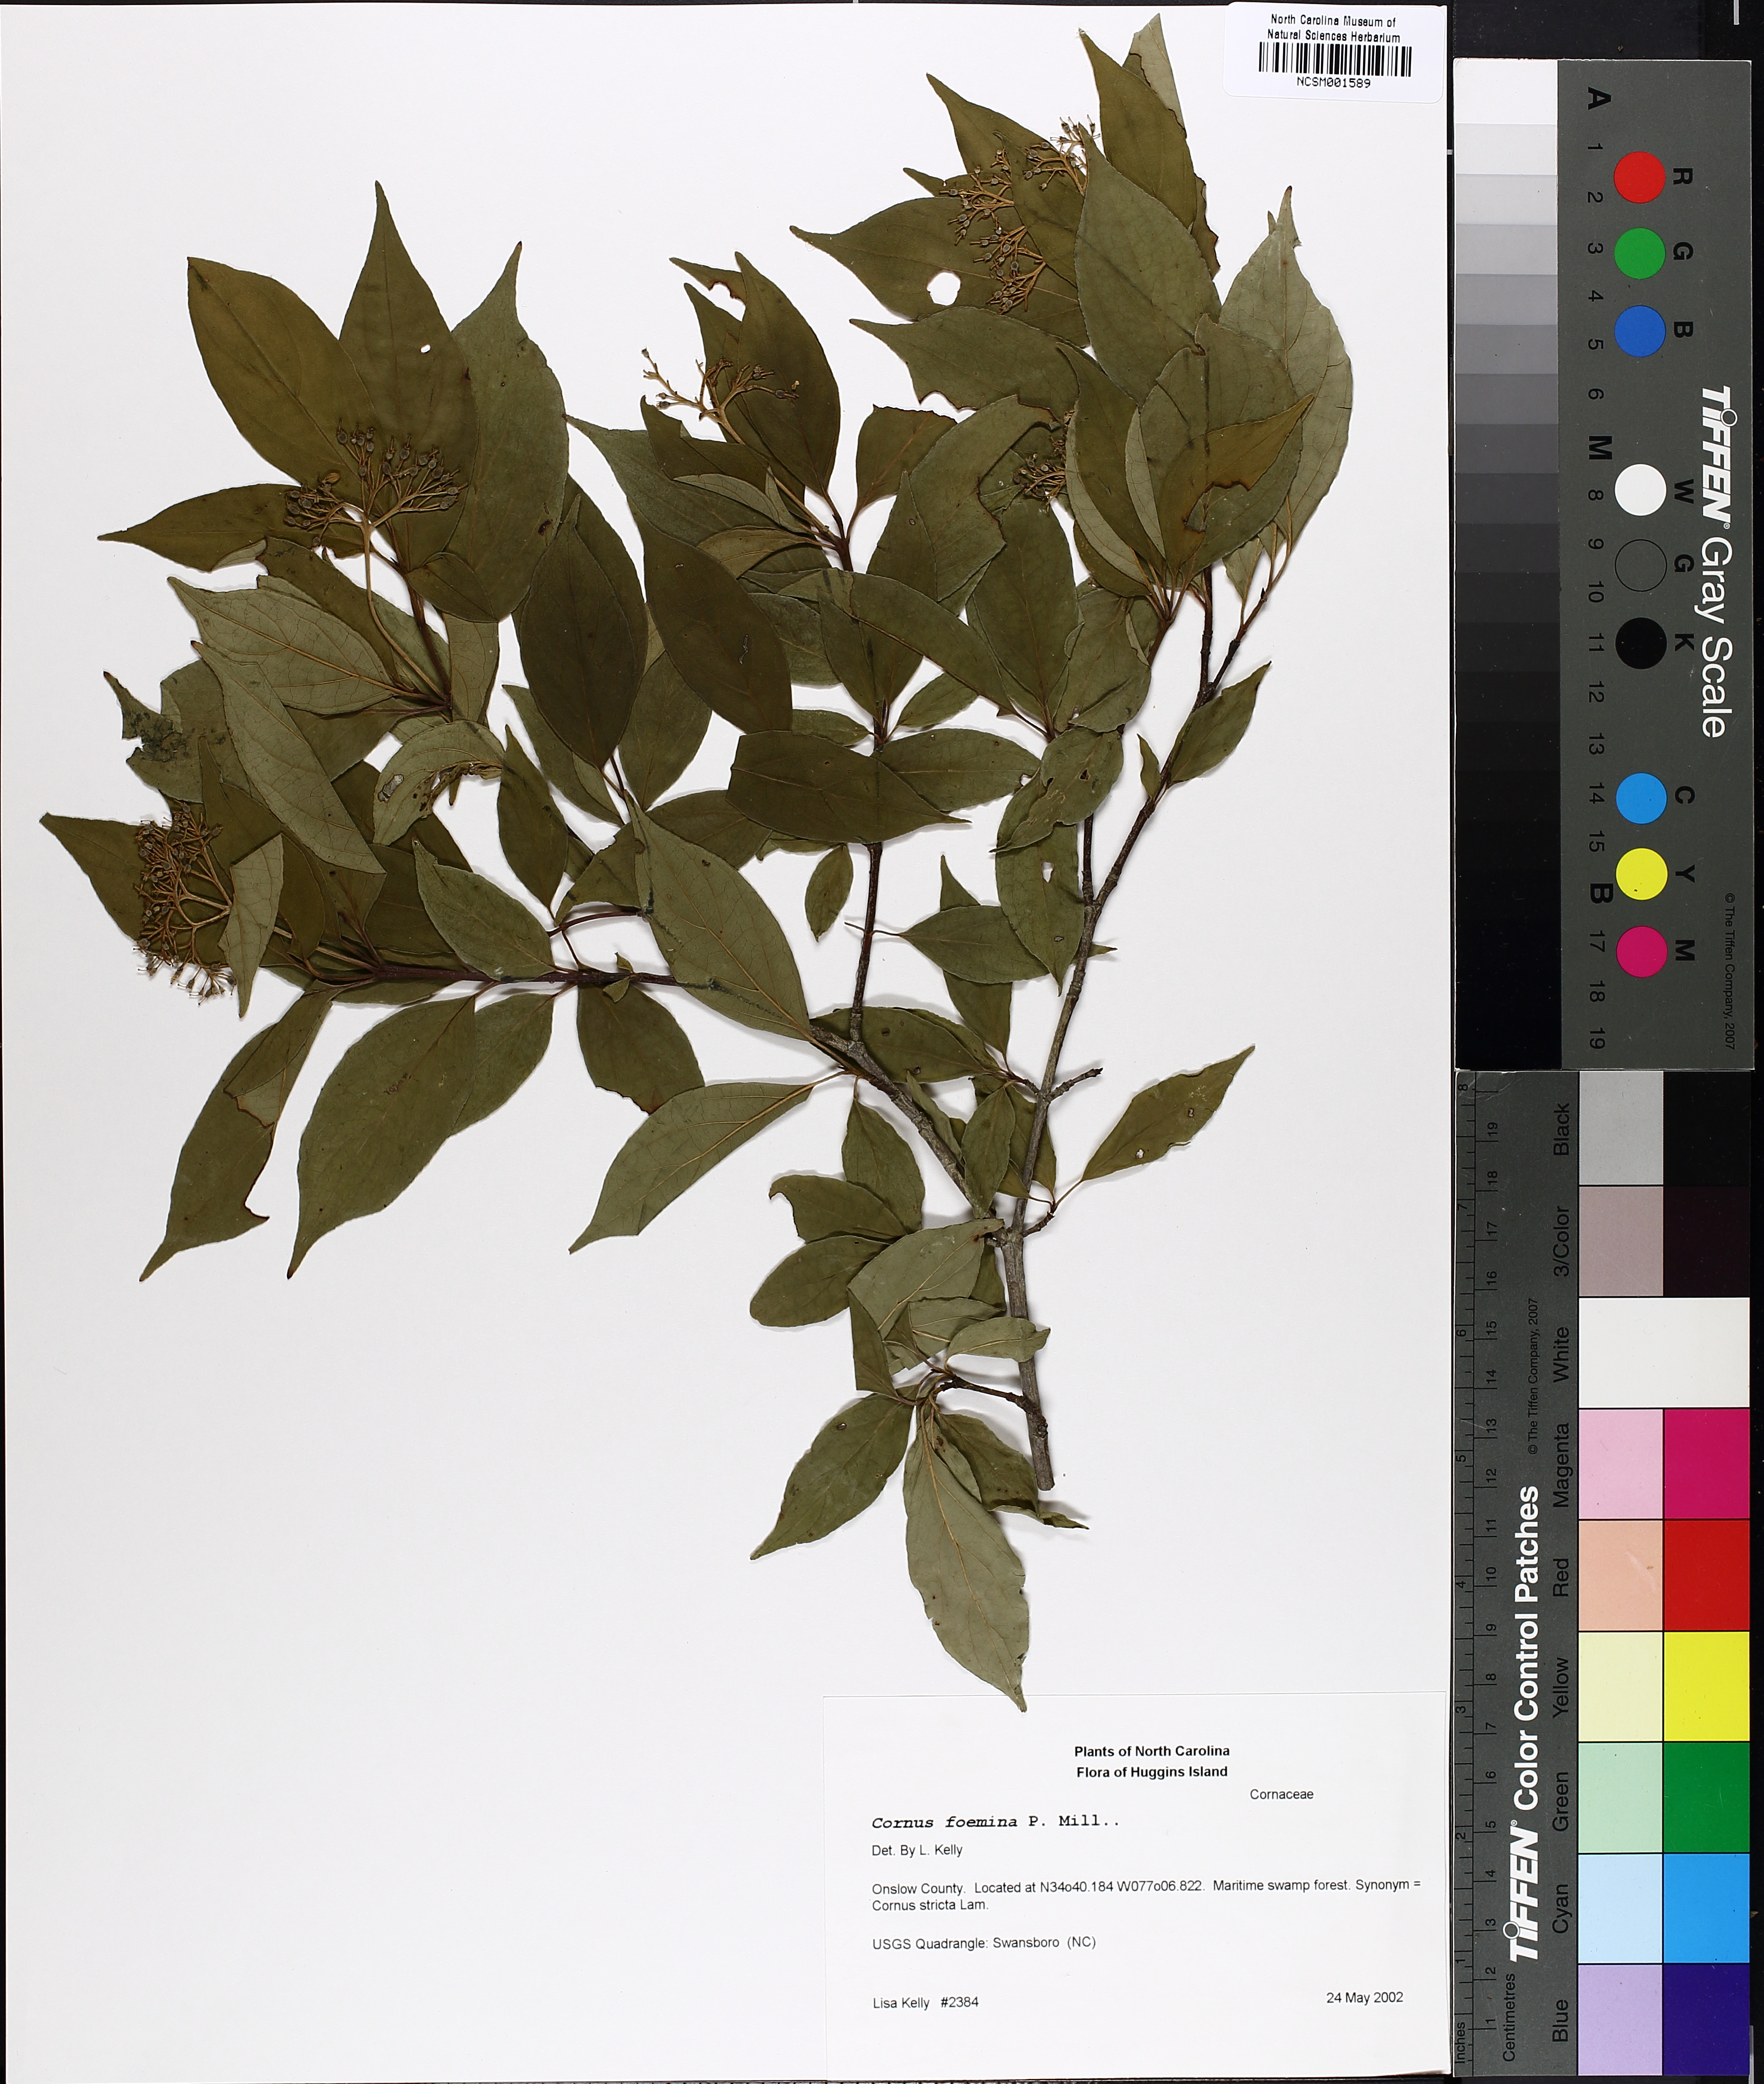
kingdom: Plantae
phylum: Tracheophyta
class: Magnoliopsida
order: Cornales
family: Cornaceae
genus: Cornus
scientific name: Cornus foemina
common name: Swamp dogwood
